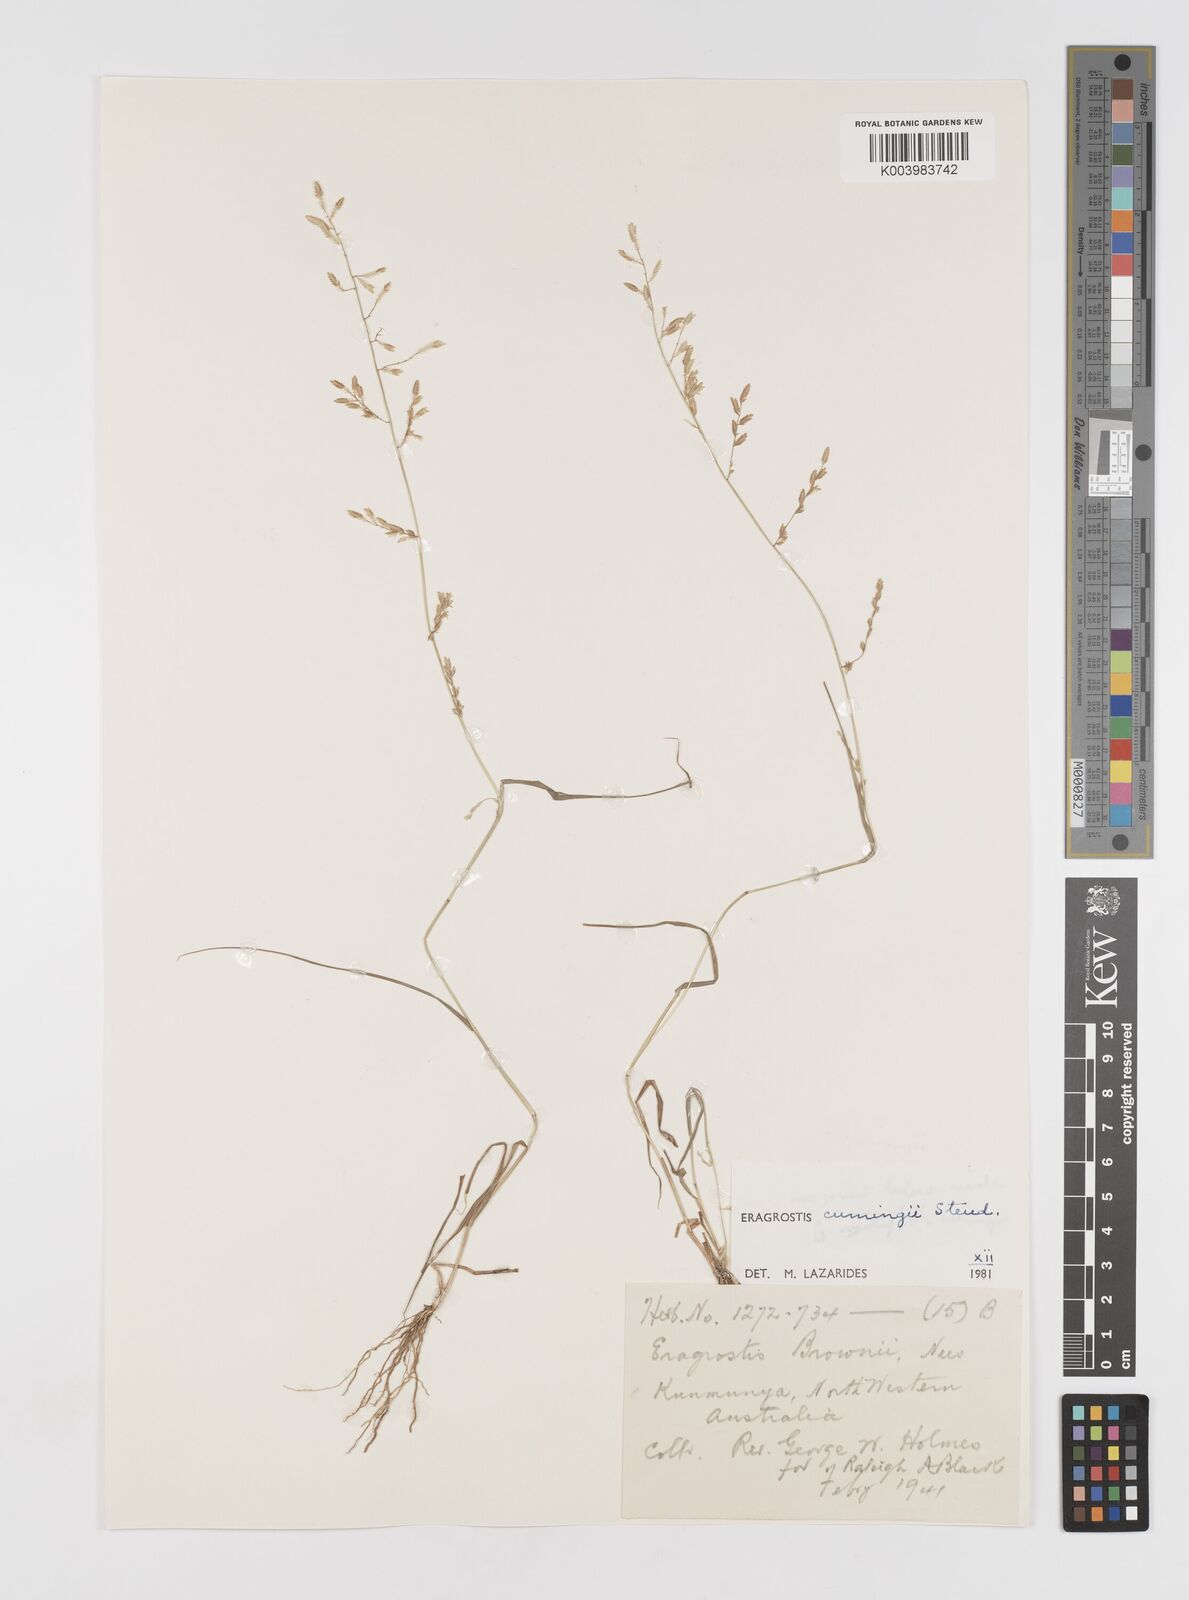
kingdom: Plantae
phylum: Tracheophyta
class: Liliopsida
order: Poales
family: Poaceae
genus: Eragrostis
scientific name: Eragrostis cumingii
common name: Cuming's lovegrass
